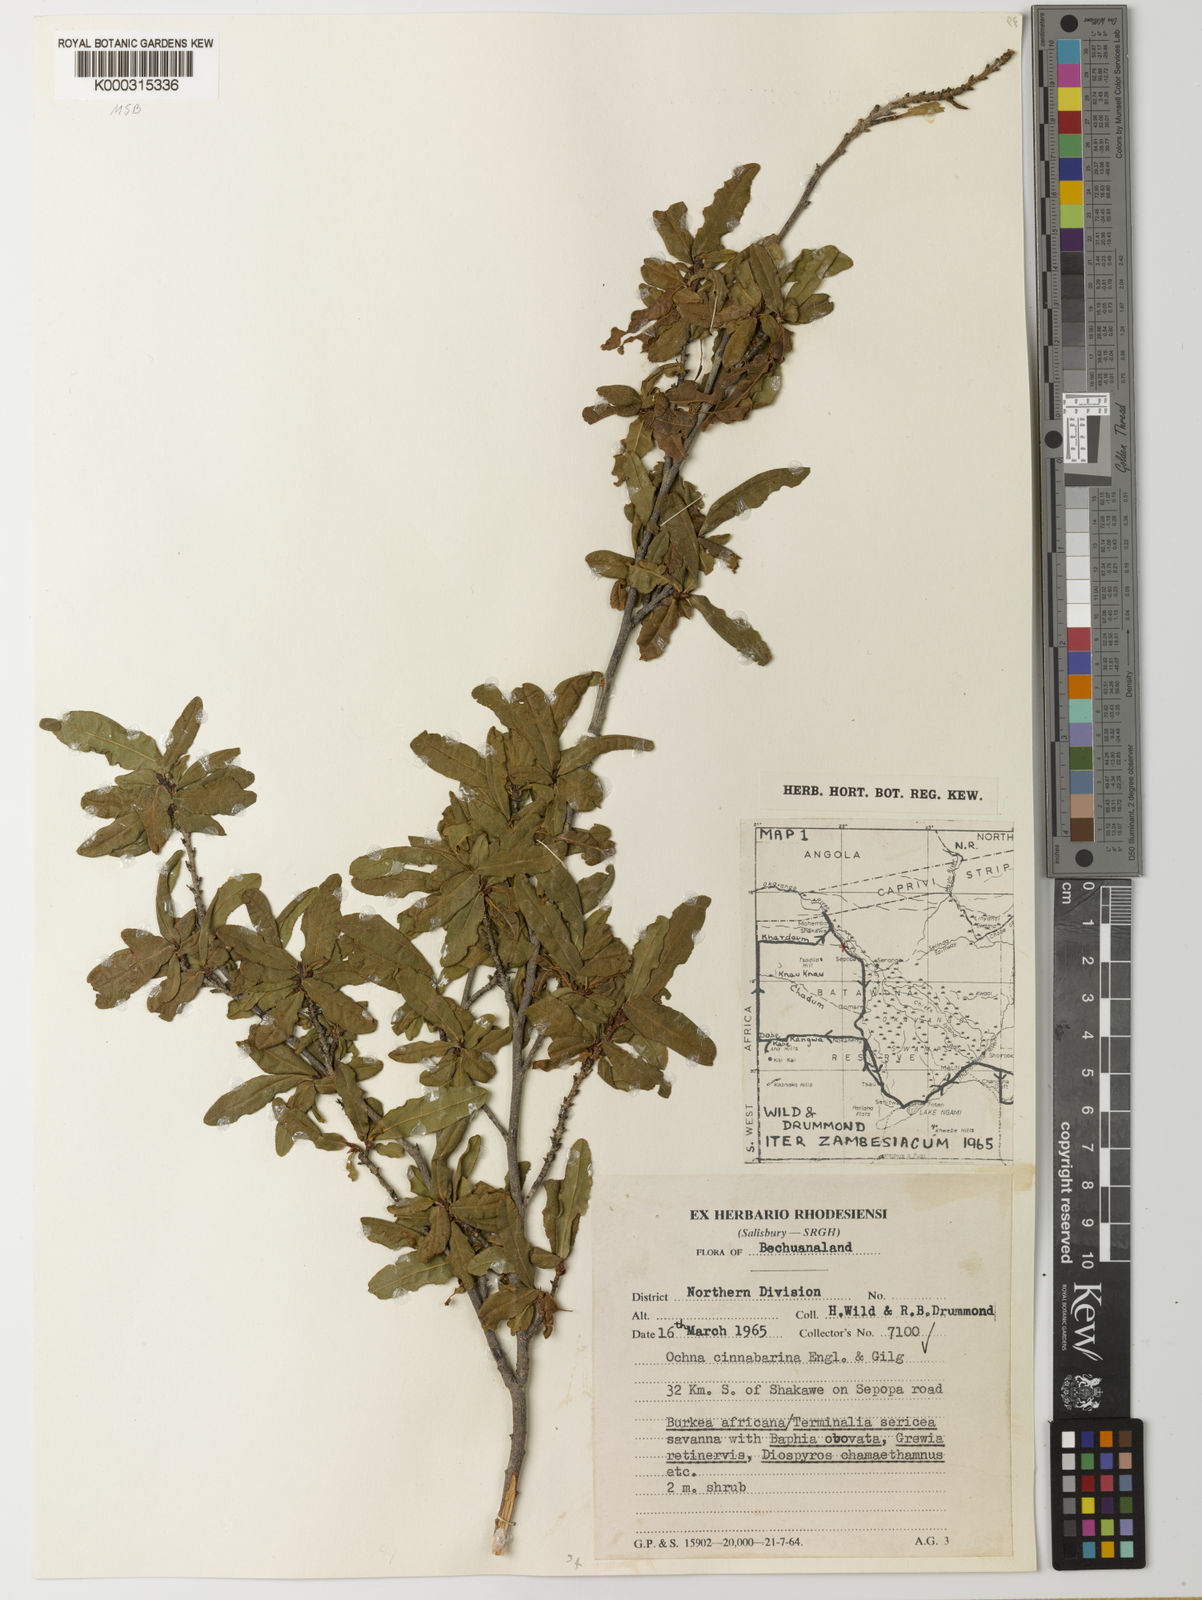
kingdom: Plantae
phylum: Tracheophyta
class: Magnoliopsida
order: Malpighiales
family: Ochnaceae
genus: Ochna
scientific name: Ochna cinnabarina
